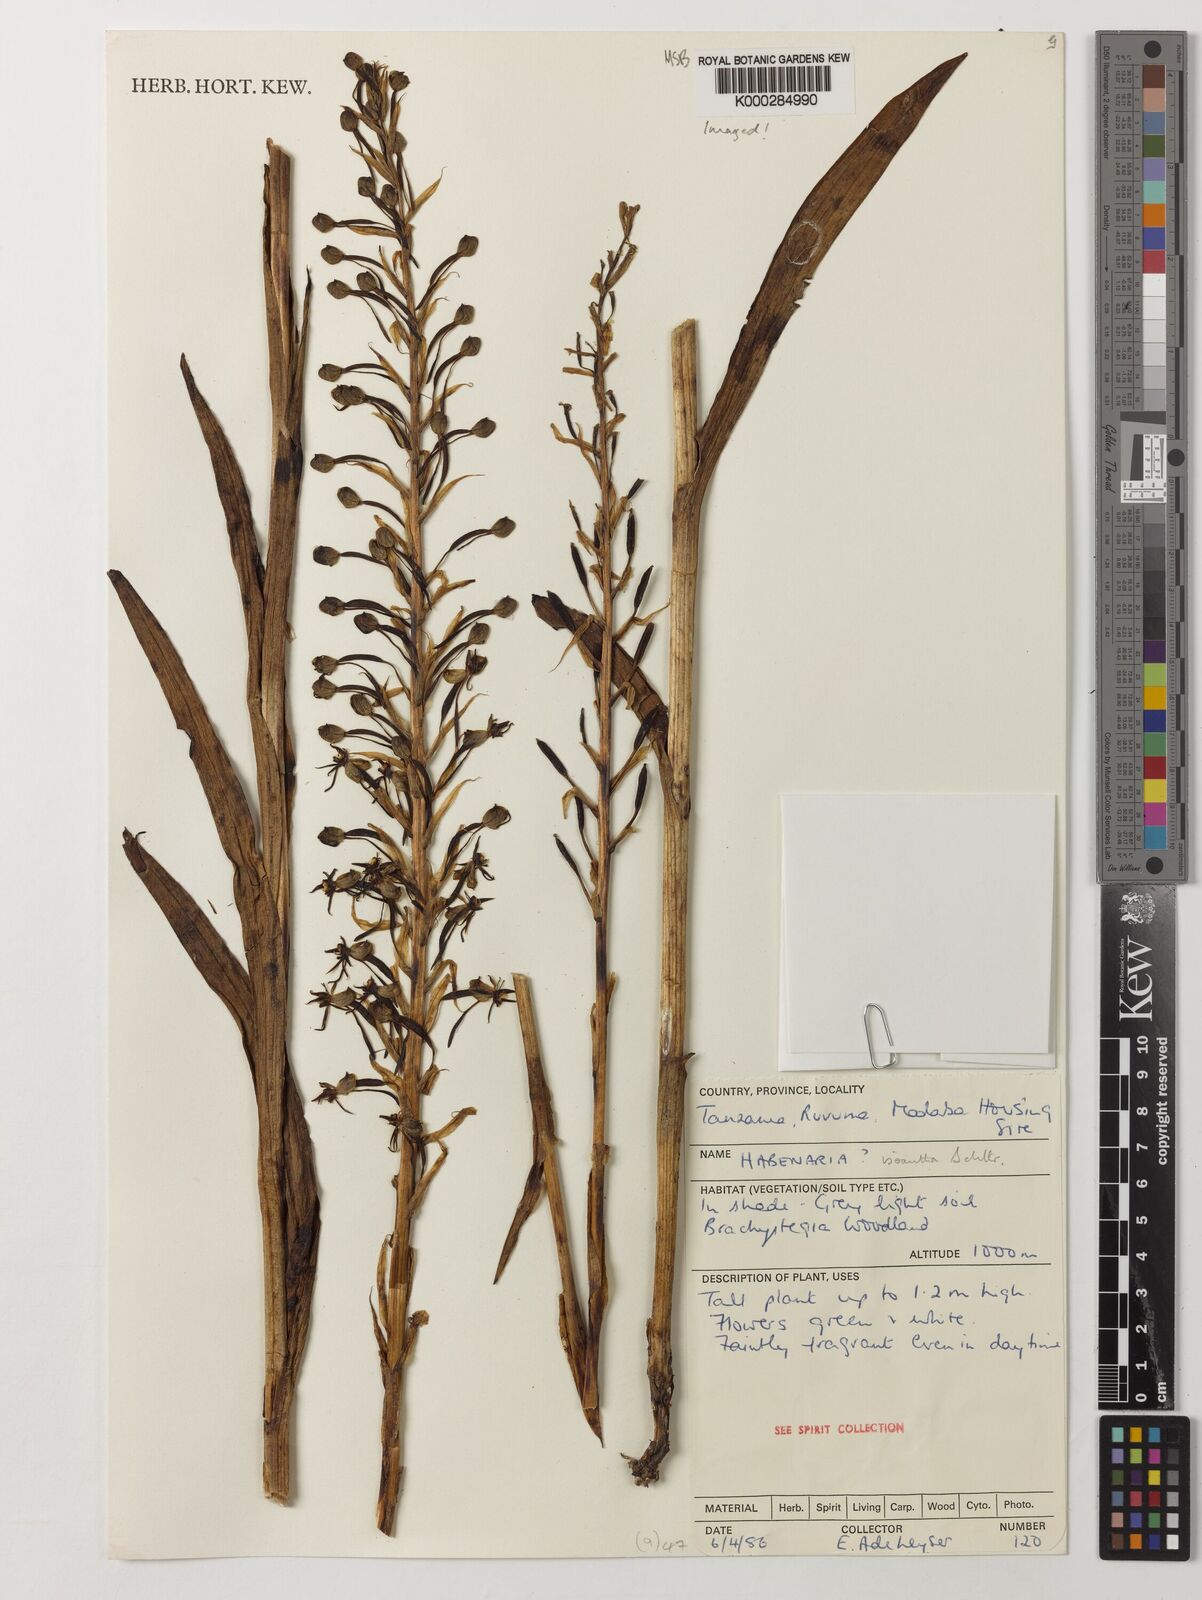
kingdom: Plantae
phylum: Tracheophyta
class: Liliopsida
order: Asparagales
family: Orchidaceae
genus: Habenaria
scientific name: Habenaria isoantha
